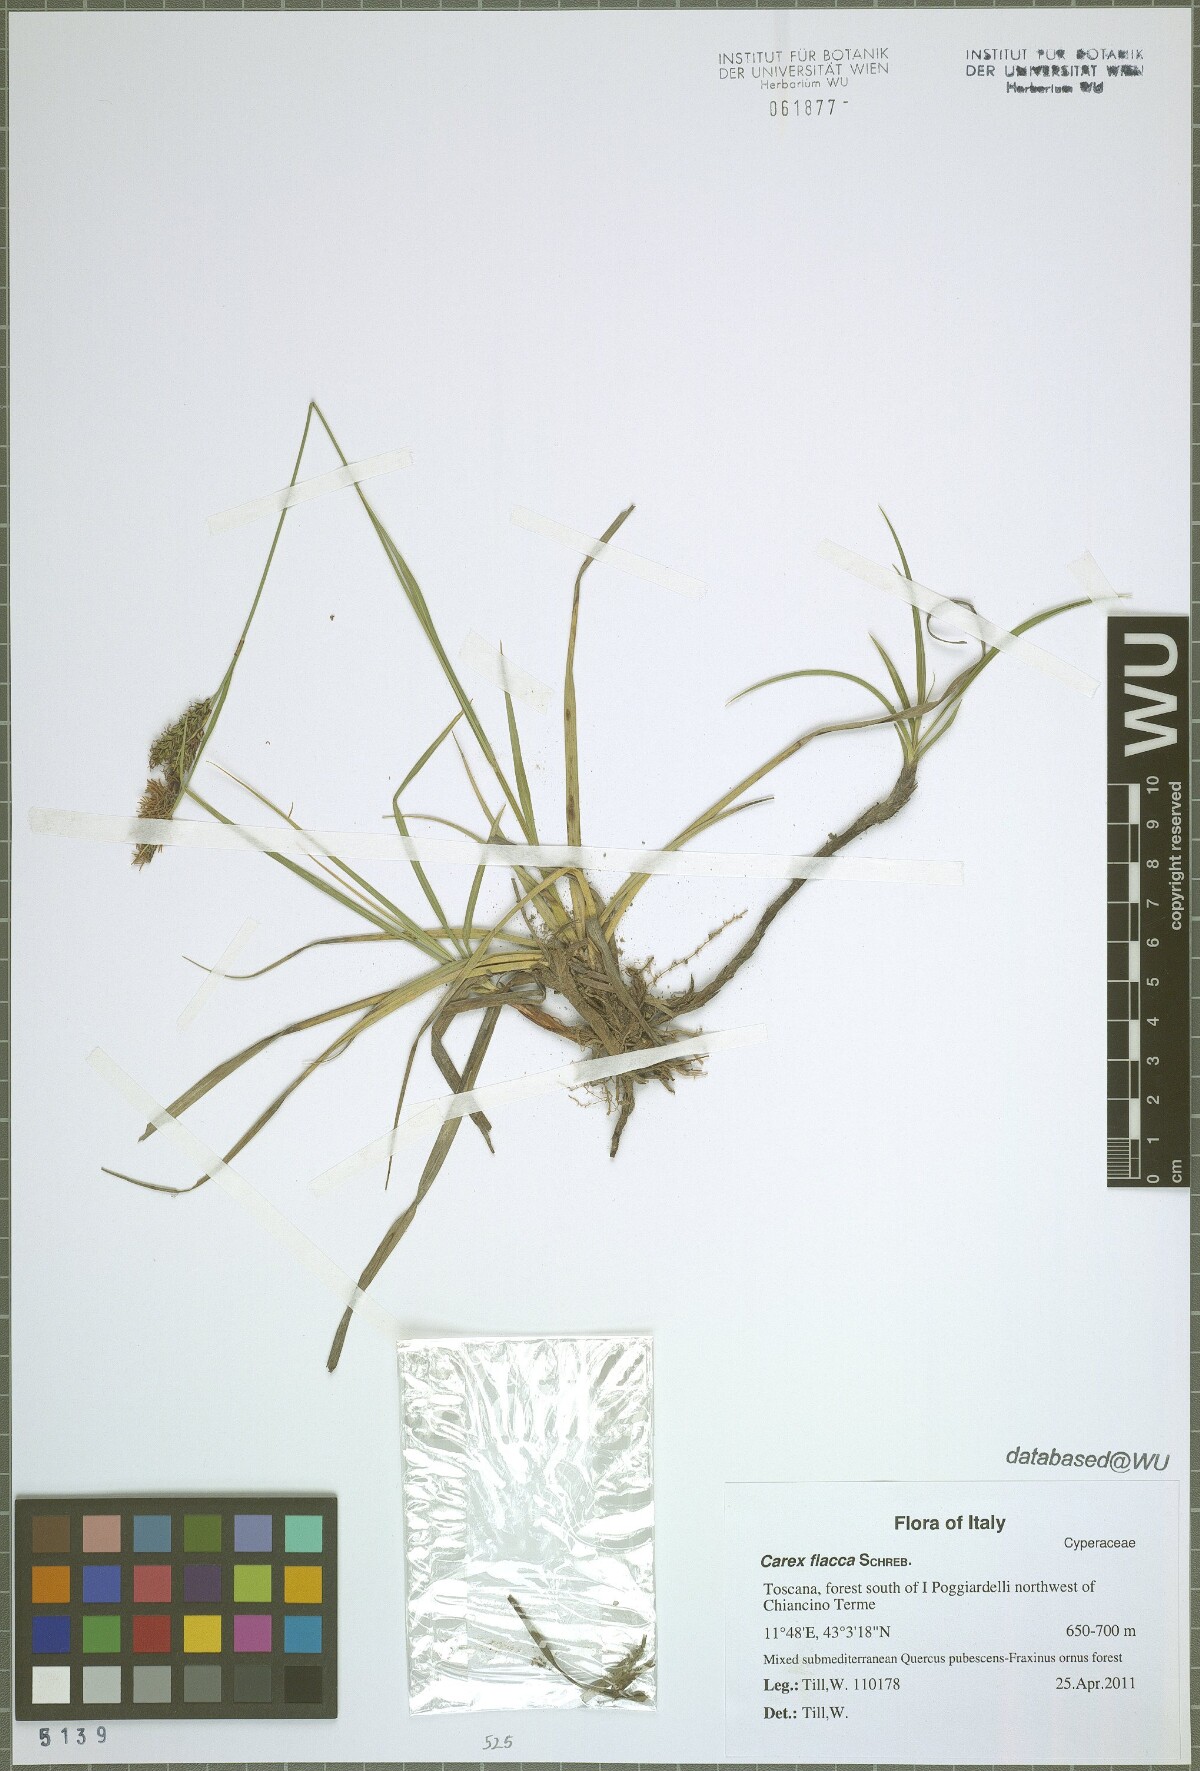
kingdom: Plantae
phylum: Tracheophyta
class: Liliopsida
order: Poales
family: Cyperaceae
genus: Carex
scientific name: Carex flacca
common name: Glaucous sedge
